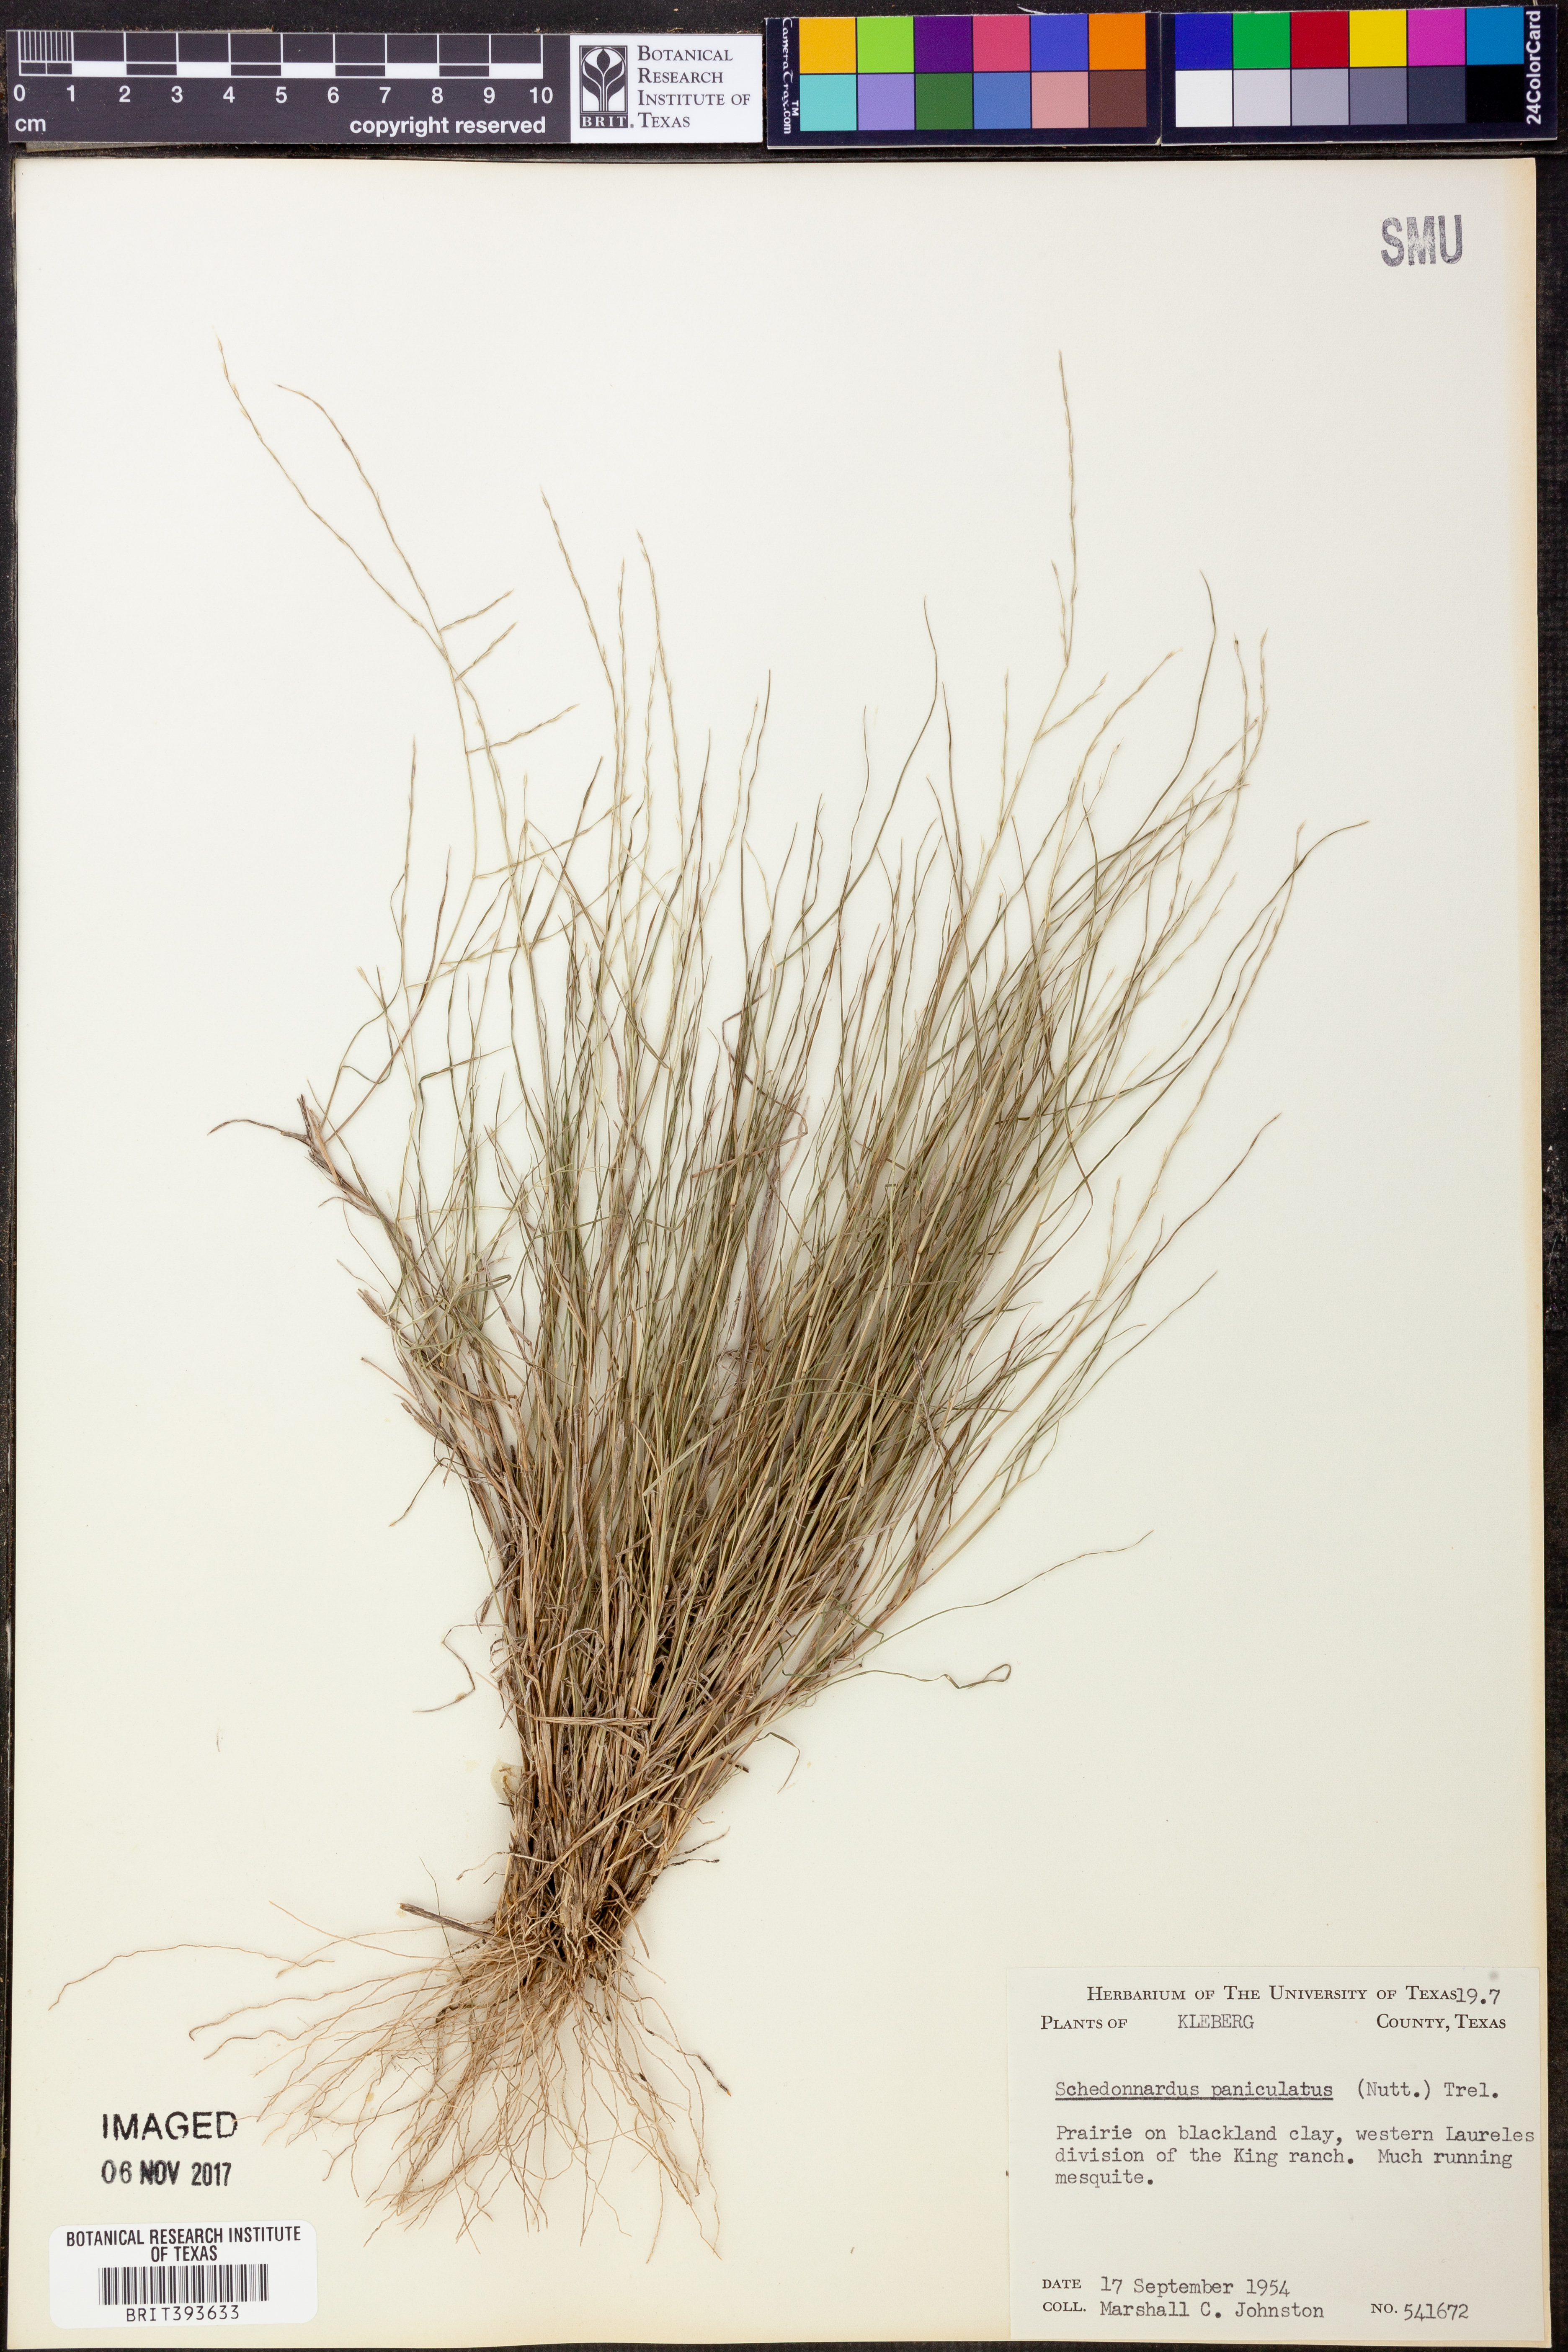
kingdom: Plantae
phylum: Tracheophyta
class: Liliopsida
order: Poales
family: Poaceae
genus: Muhlenbergia
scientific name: Muhlenbergia paniculata
